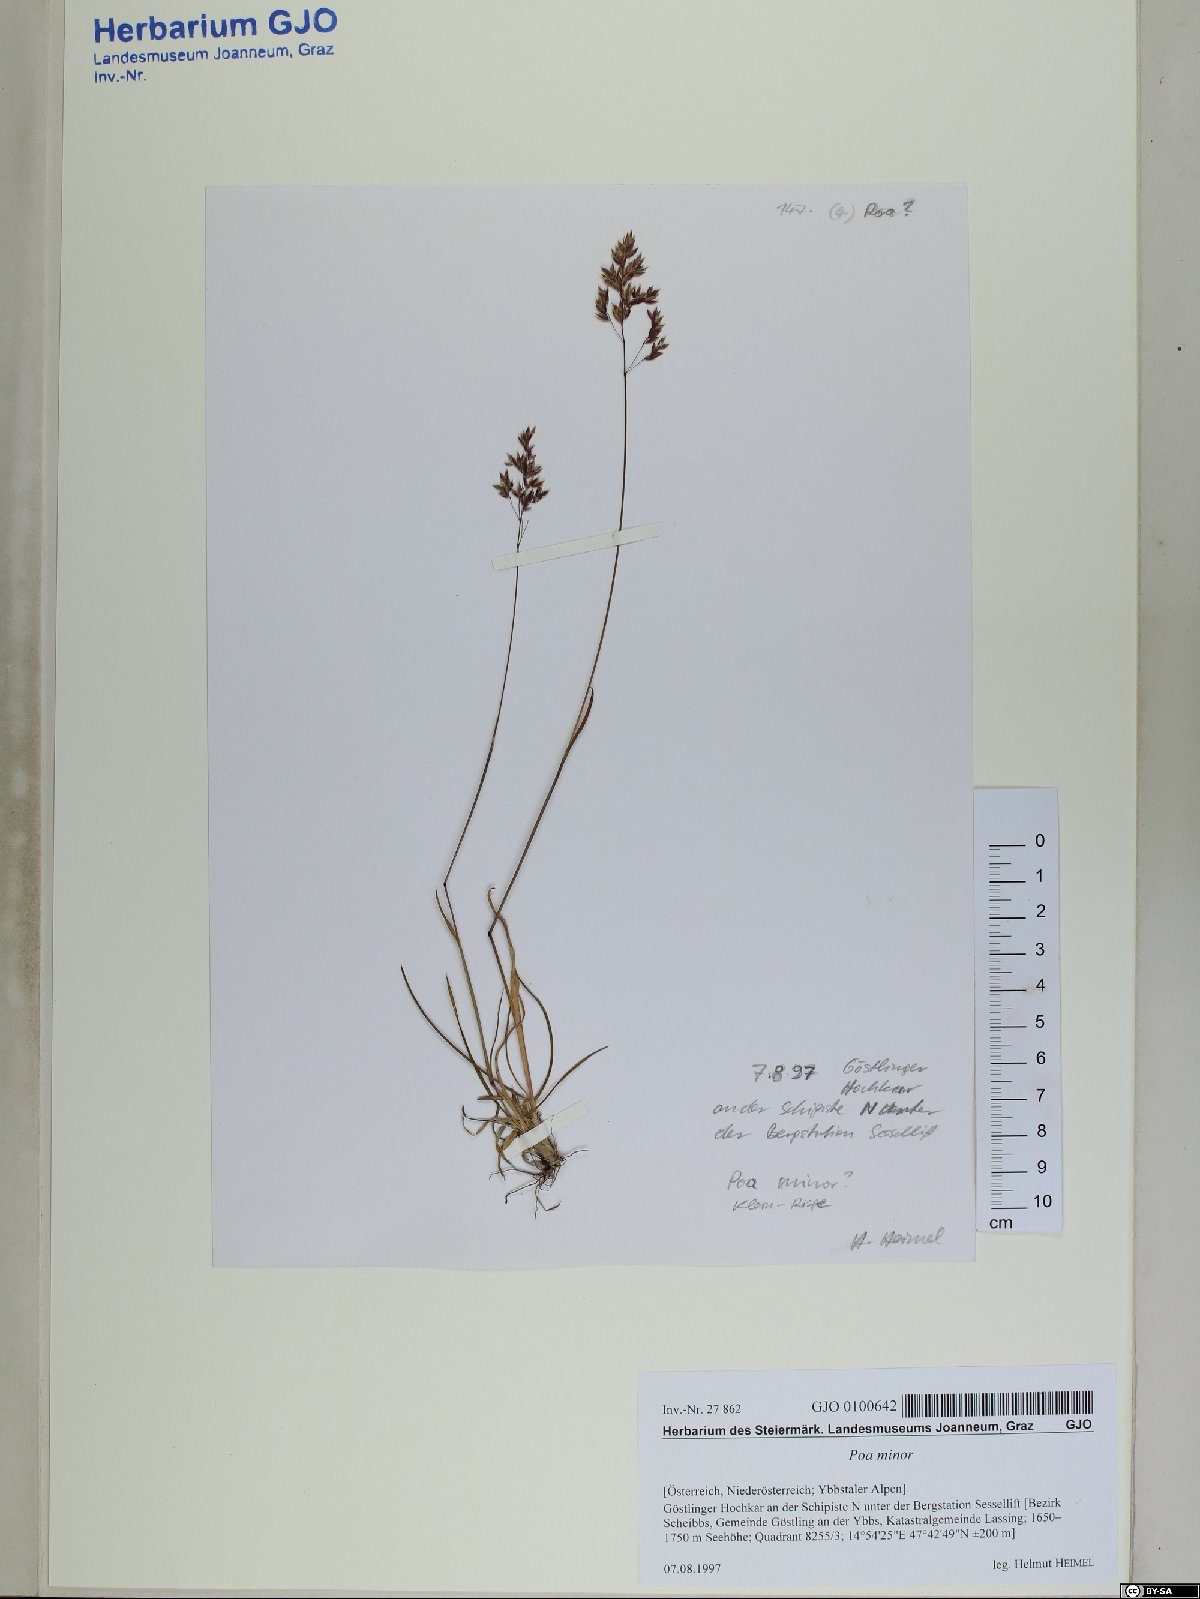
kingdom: Plantae
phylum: Tracheophyta
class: Liliopsida
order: Poales
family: Poaceae
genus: Poa
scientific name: Poa minor
